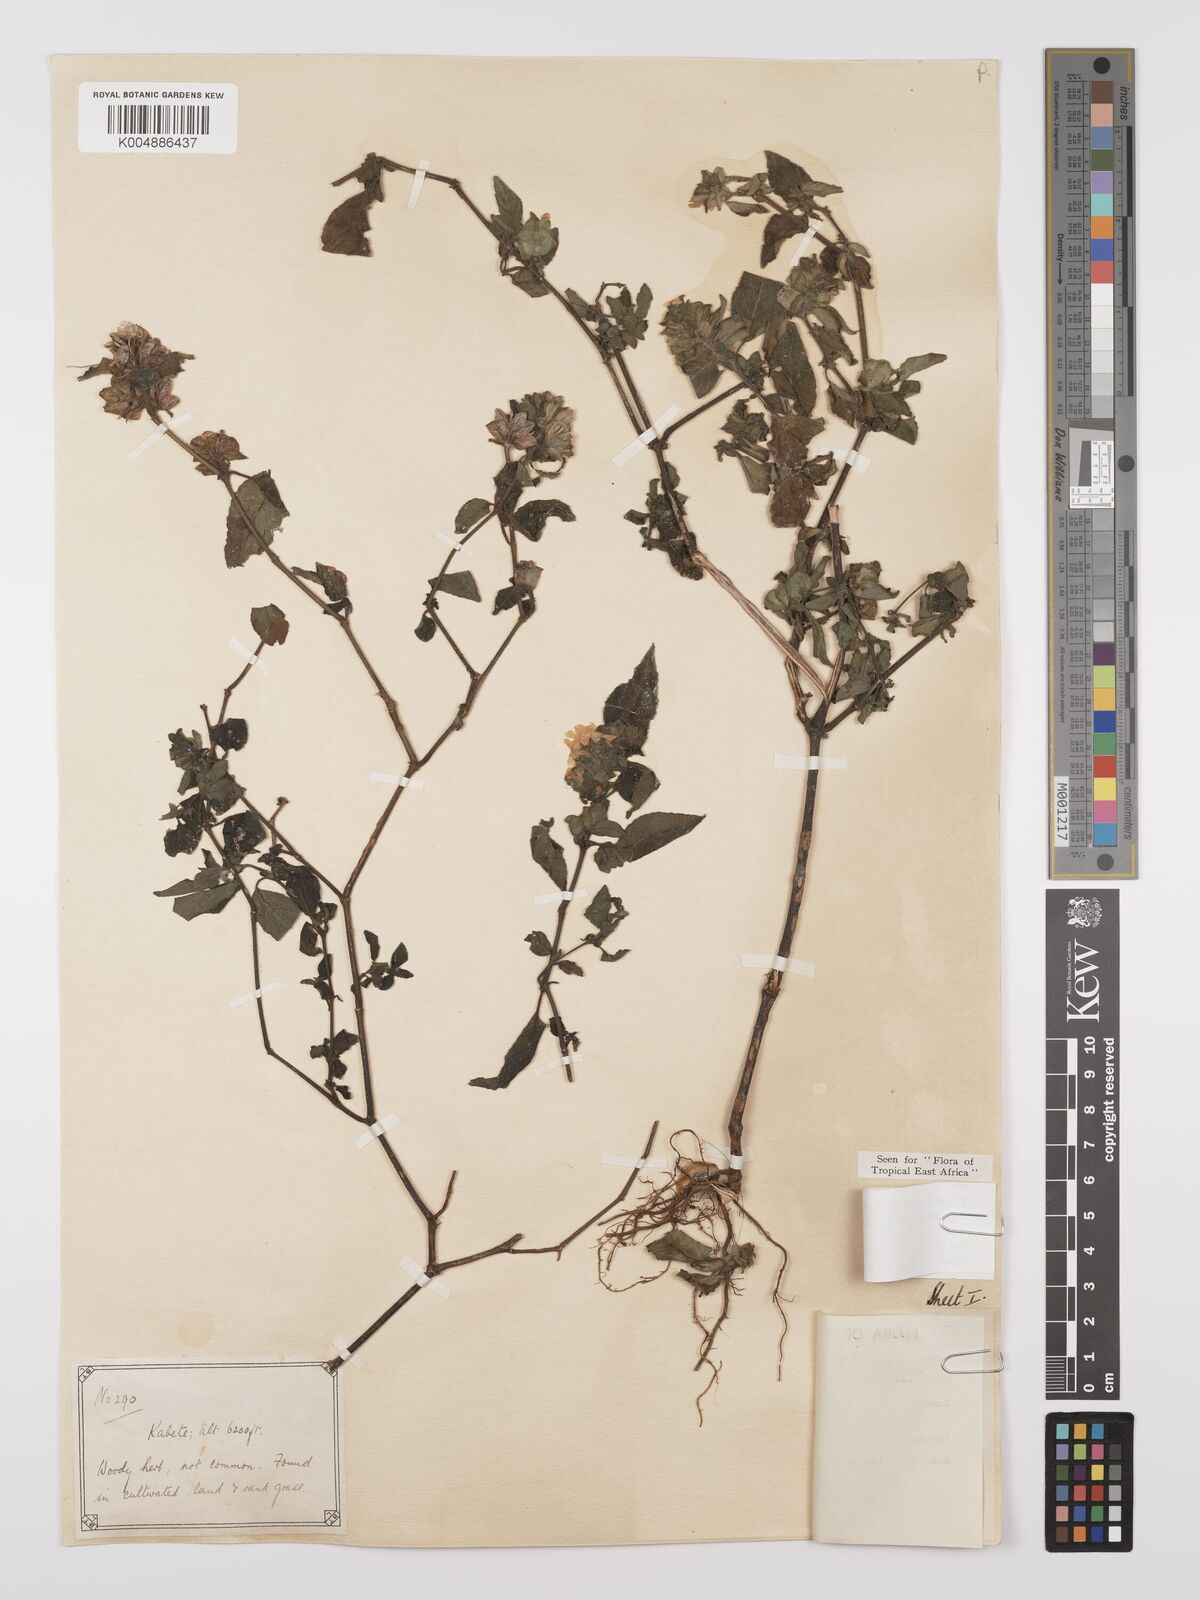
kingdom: Plantae
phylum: Tracheophyta
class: Magnoliopsida
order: Lamiales
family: Acanthaceae
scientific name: Acanthaceae
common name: Acanthaceae
